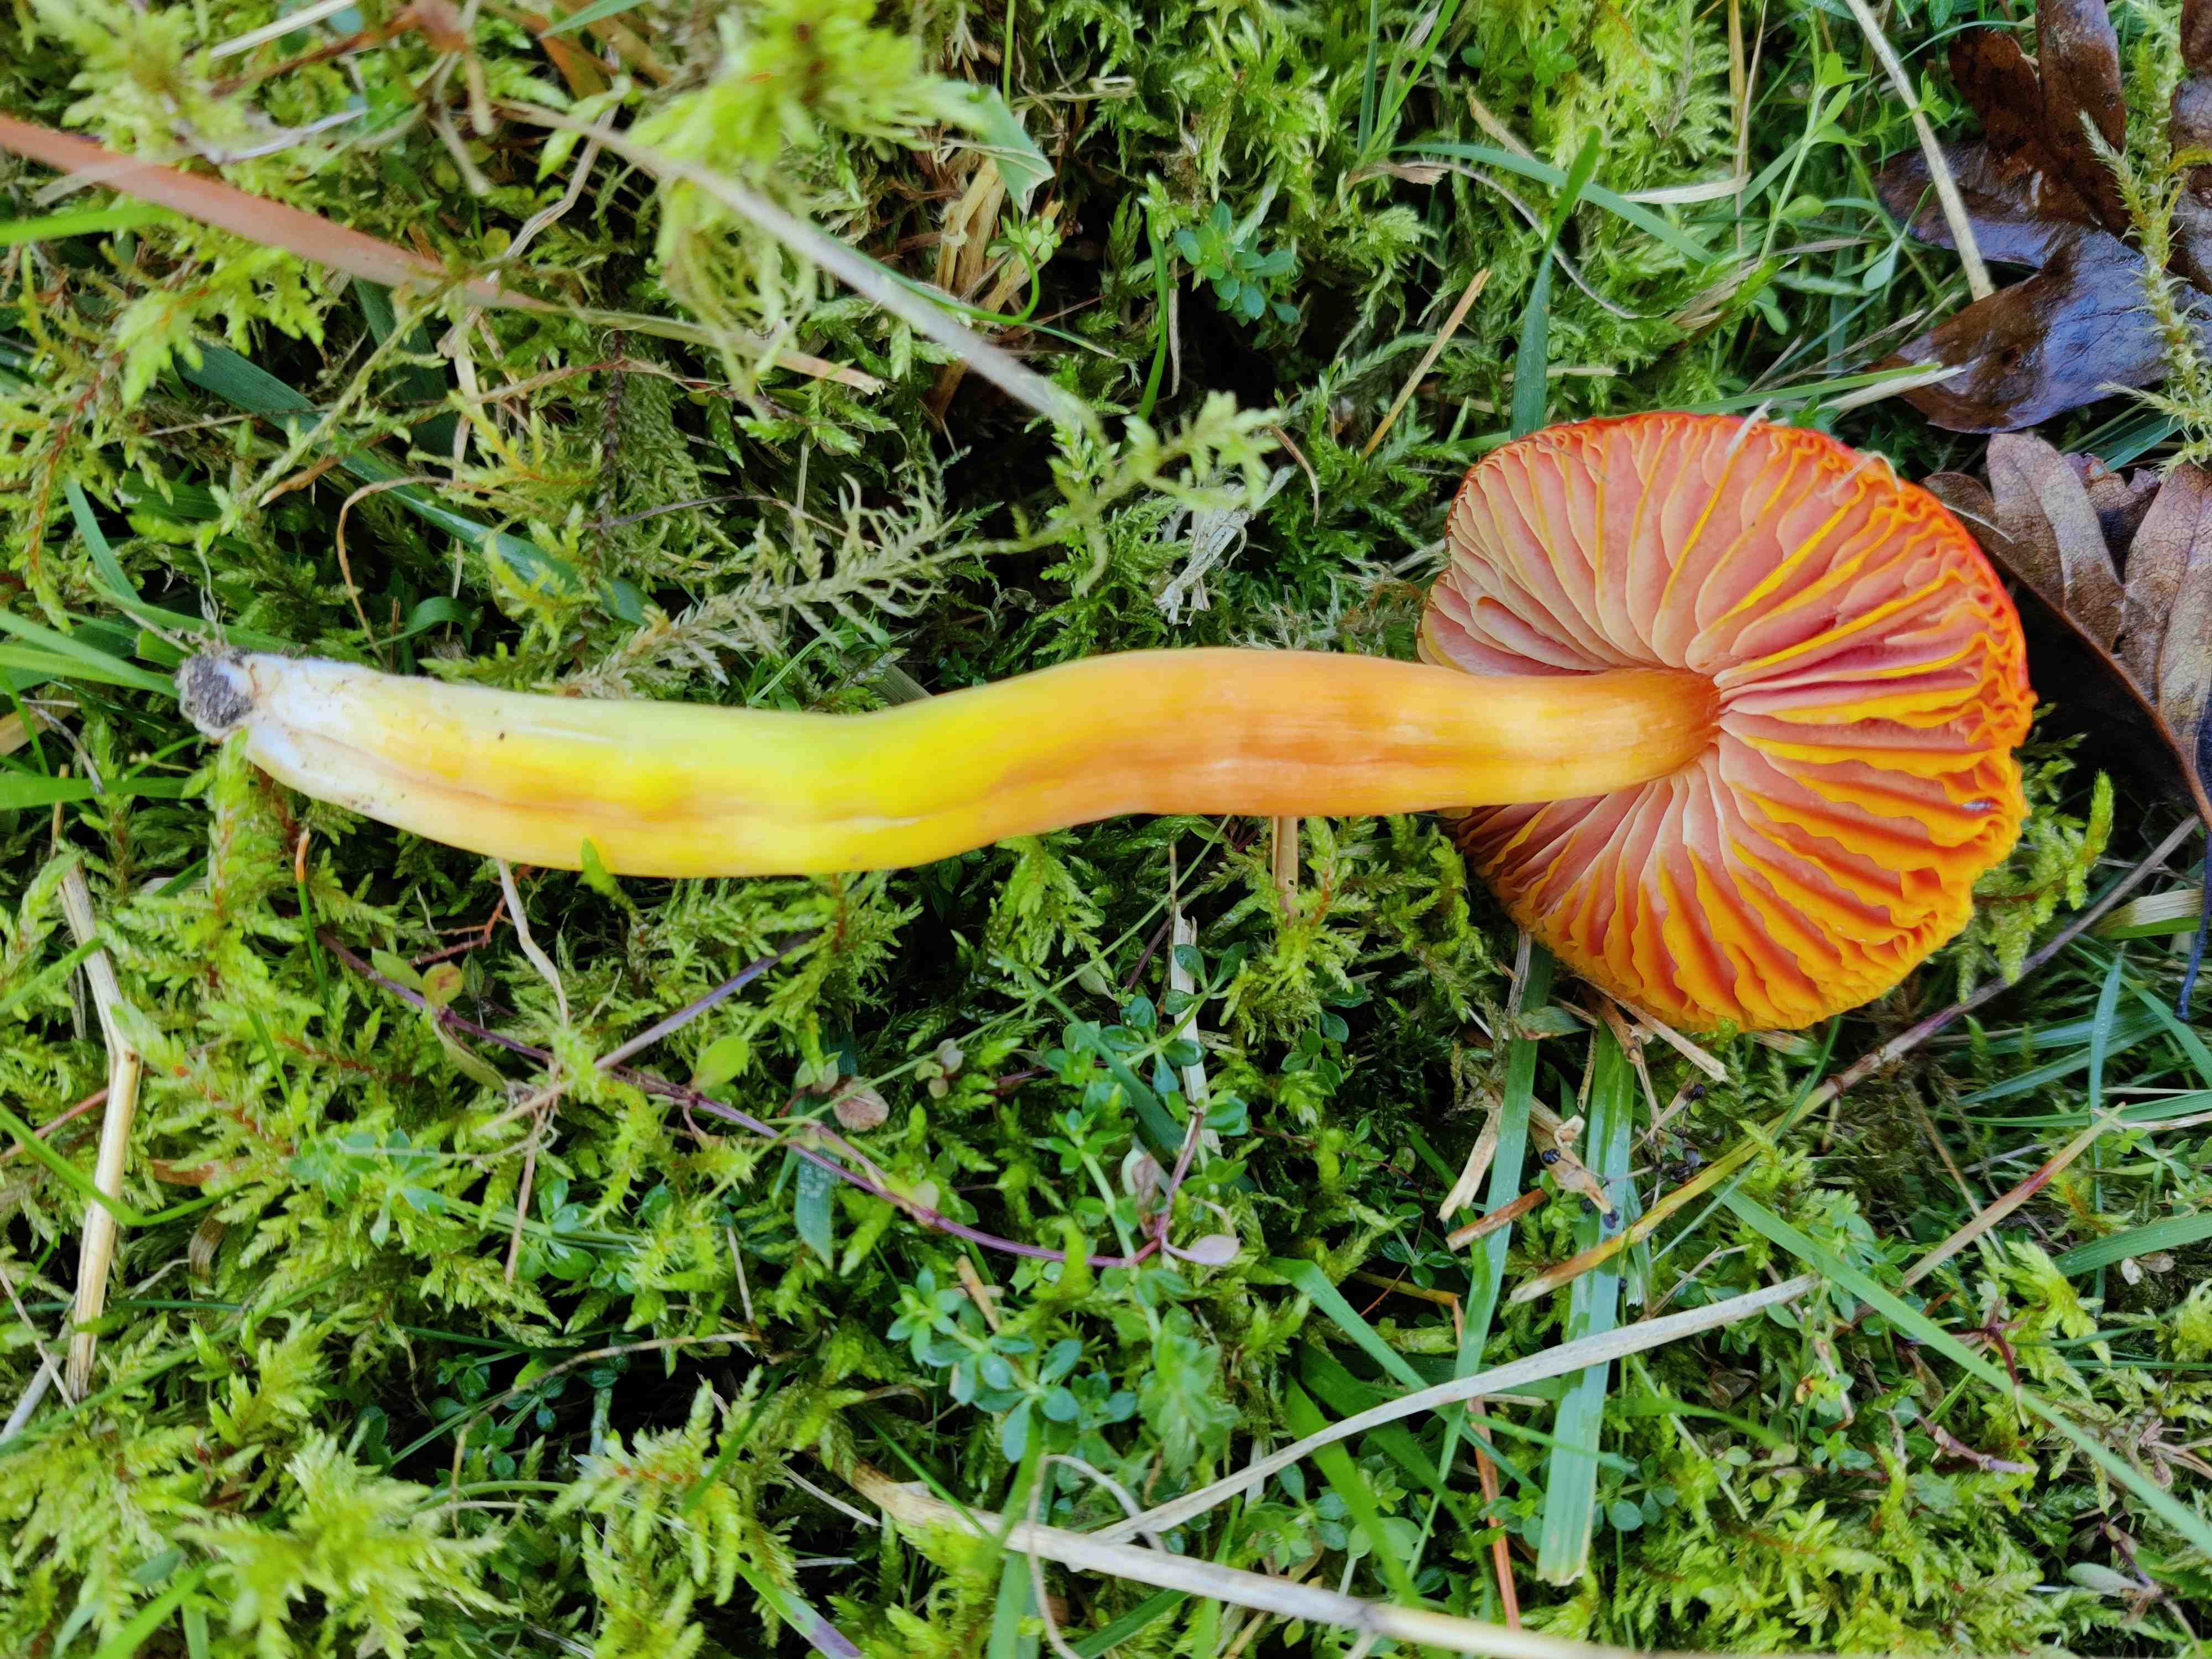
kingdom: Fungi
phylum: Basidiomycota
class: Agaricomycetes
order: Agaricales
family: Hygrophoraceae
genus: Hygrocybe
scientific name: Hygrocybe punicea
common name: skarlagen-vokshat
